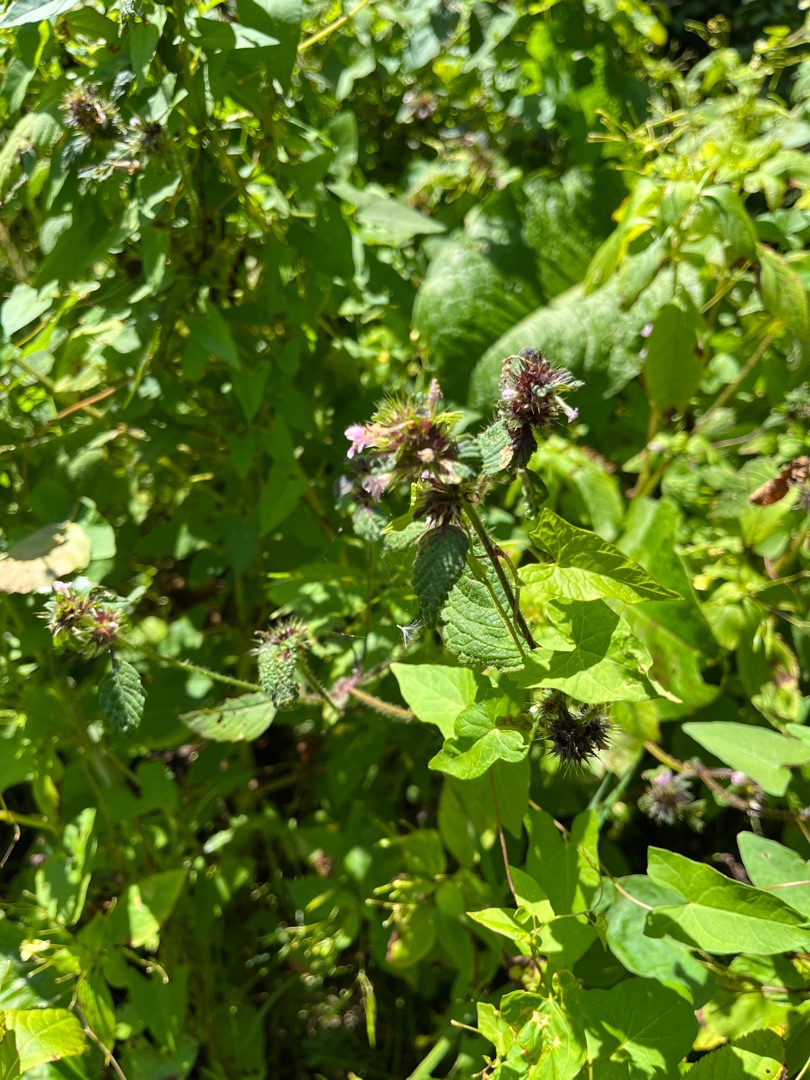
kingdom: Plantae
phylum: Tracheophyta
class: Magnoliopsida
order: Lamiales
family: Lamiaceae
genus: Galeopsis
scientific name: Galeopsis bifida
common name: Skov-hanekro
